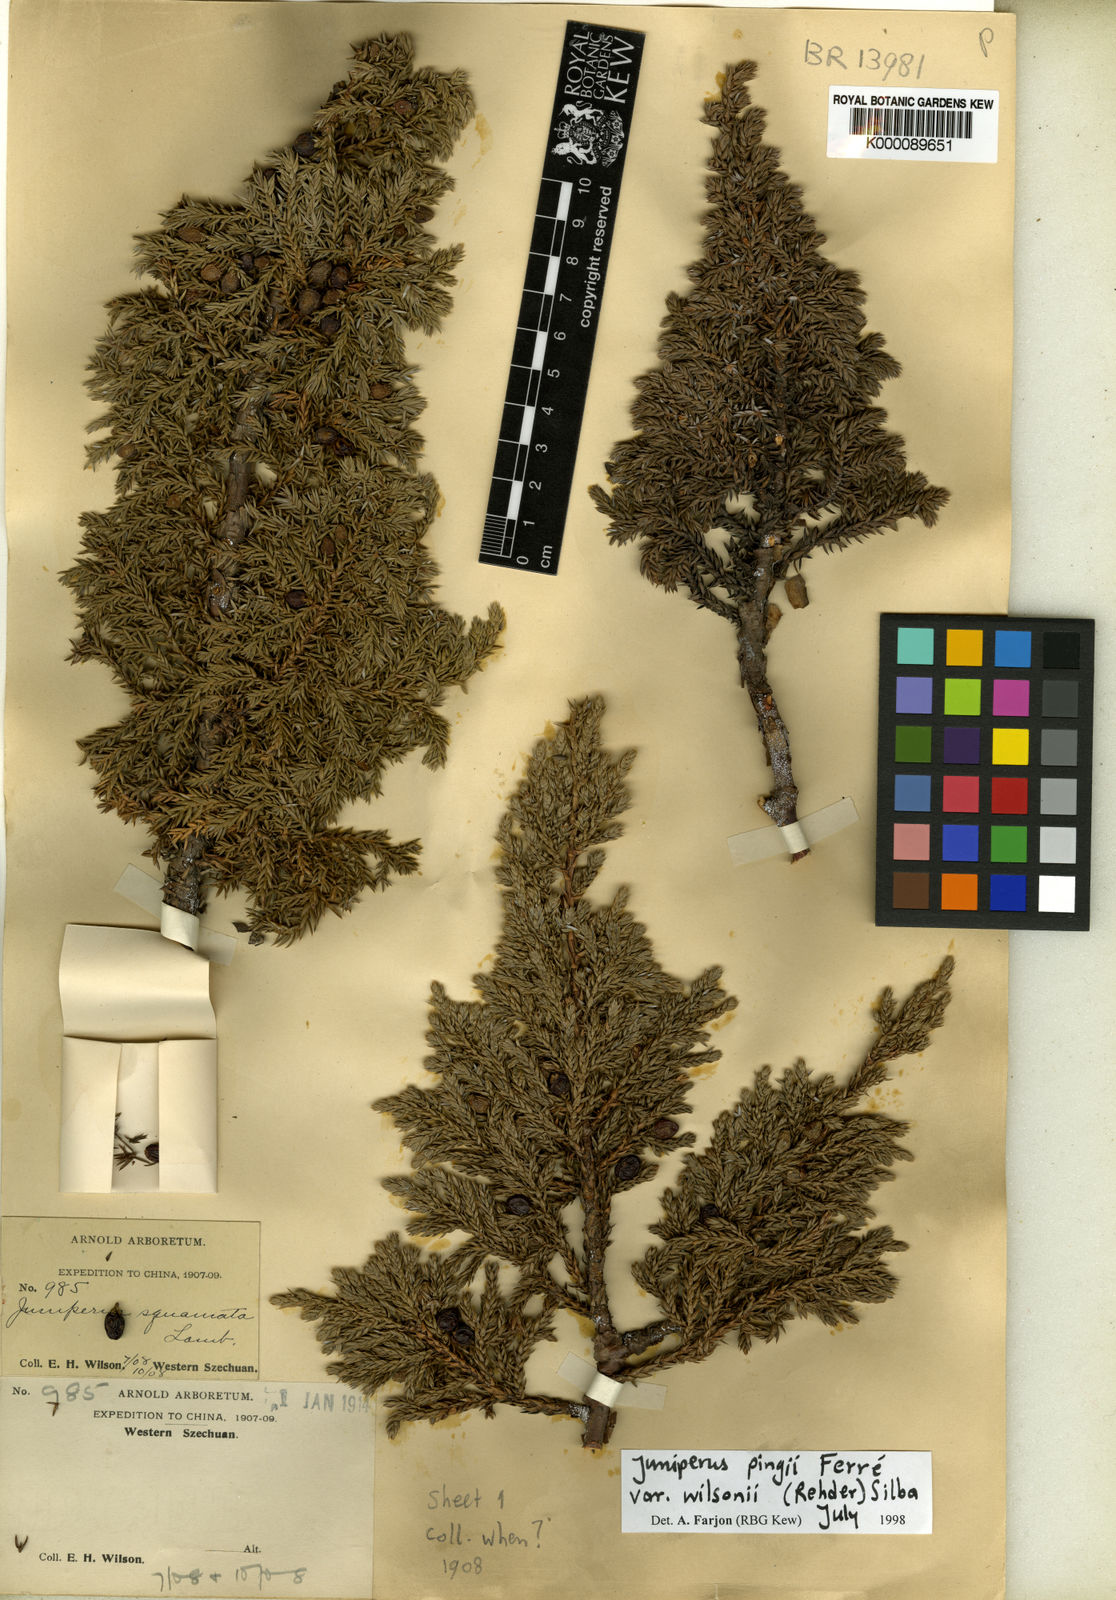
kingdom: Plantae
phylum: Tracheophyta
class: Pinopsida
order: Pinales
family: Cupressaceae
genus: Juniperus
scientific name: Juniperus
